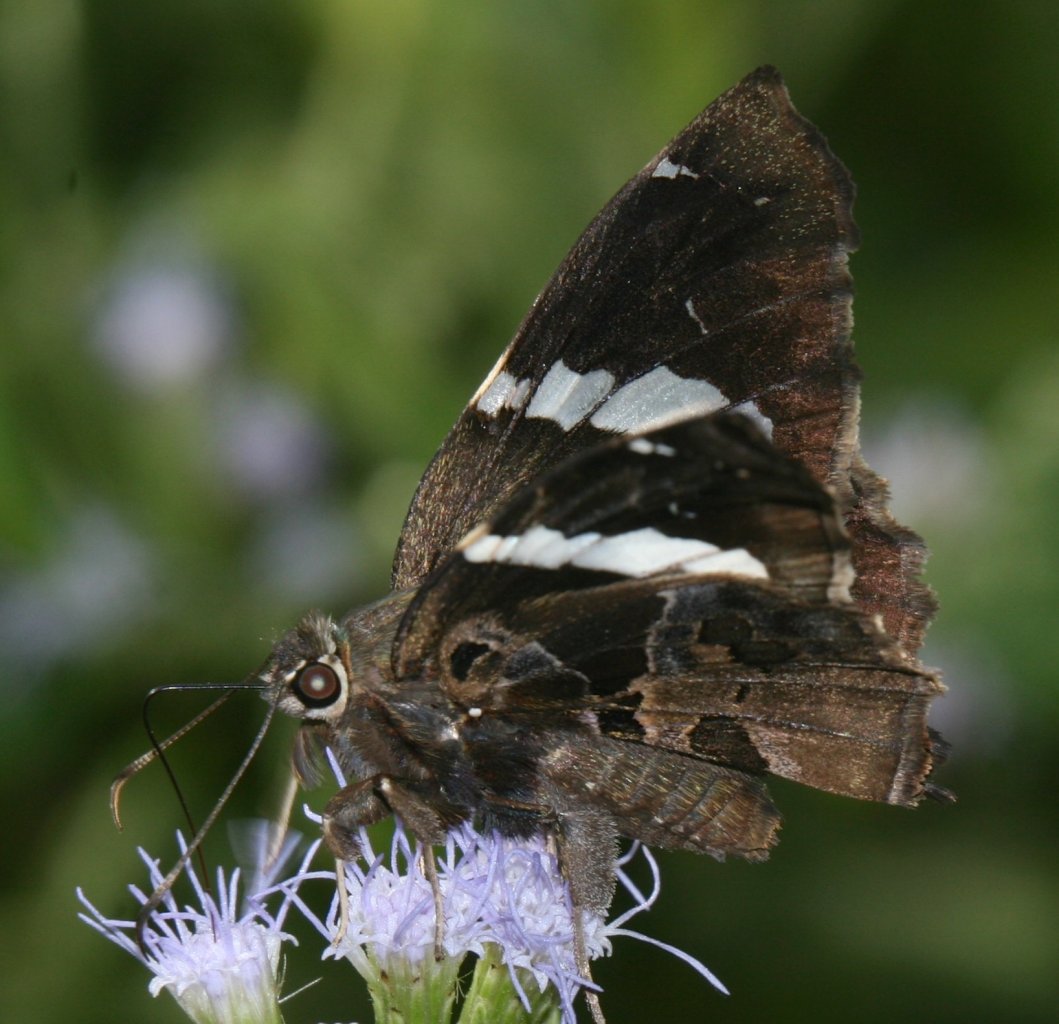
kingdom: Animalia
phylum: Arthropoda
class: Insecta
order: Lepidoptera
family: Hesperiidae
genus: Spathilepia
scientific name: Spathilepia clonius
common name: Falcate Skipper
